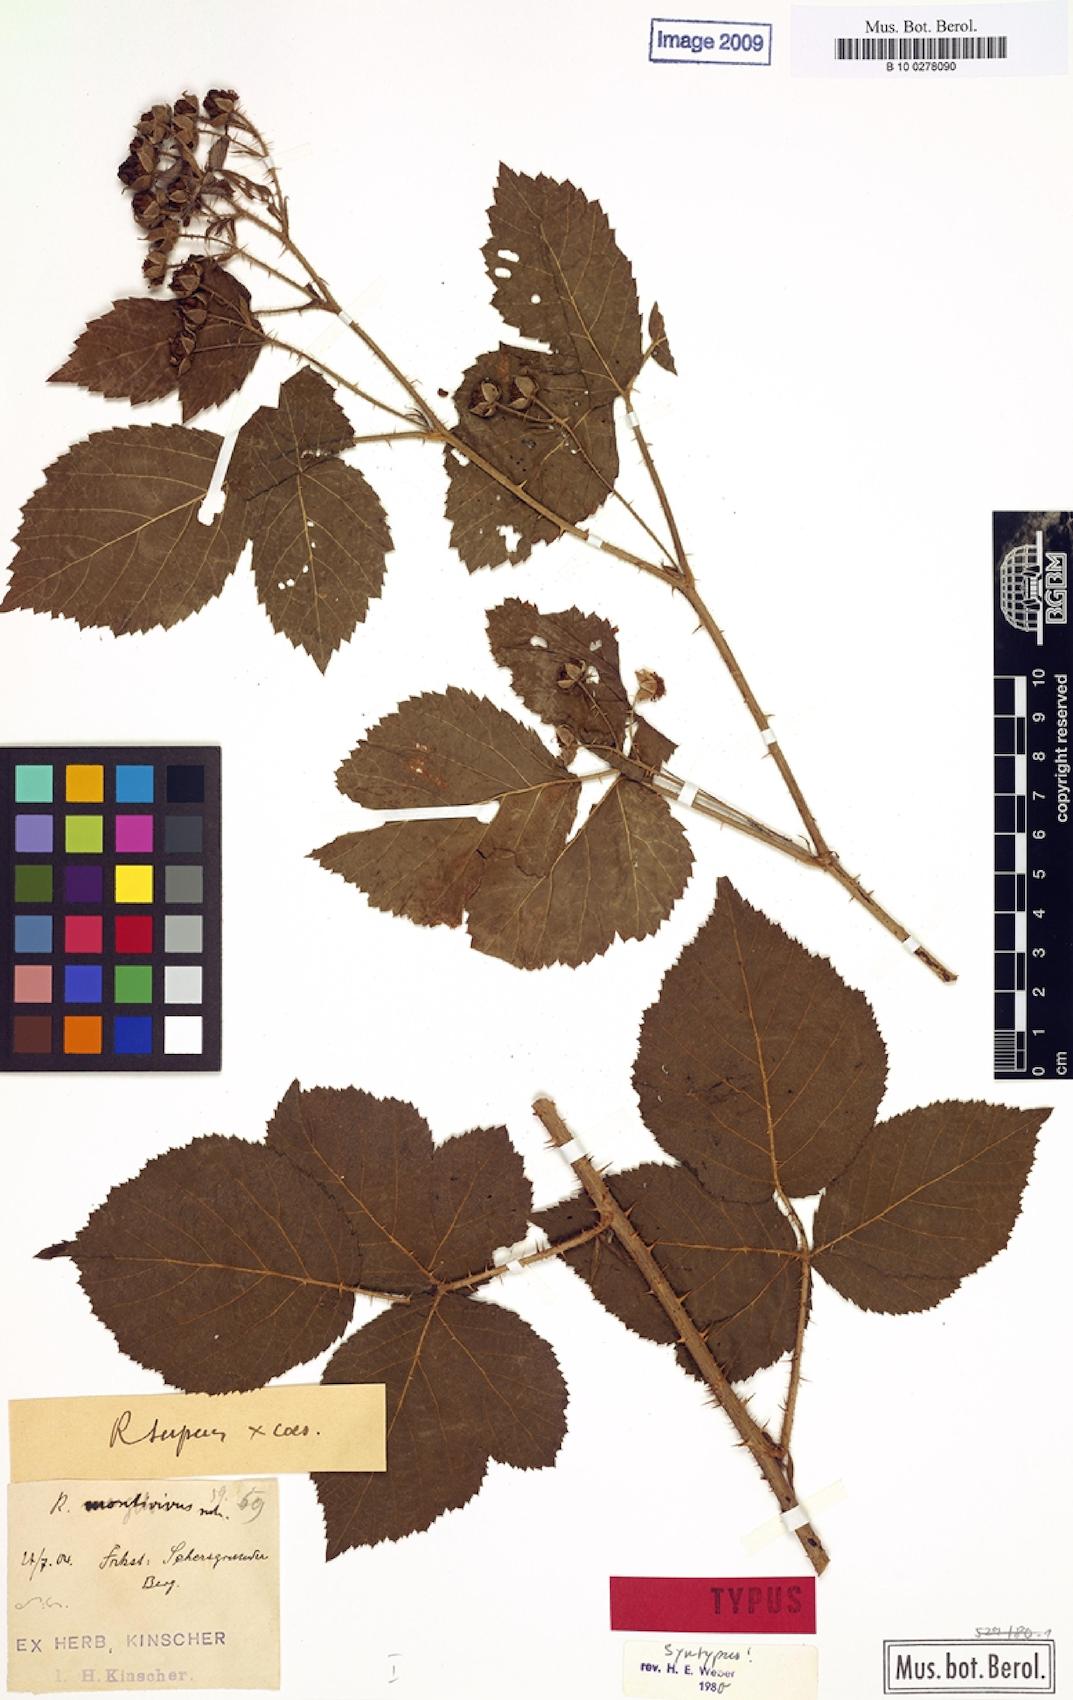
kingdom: Plantae
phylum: Tracheophyta
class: Magnoliopsida
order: Rosales
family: Rosaceae
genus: Rubus
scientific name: Rubus dollnensis
